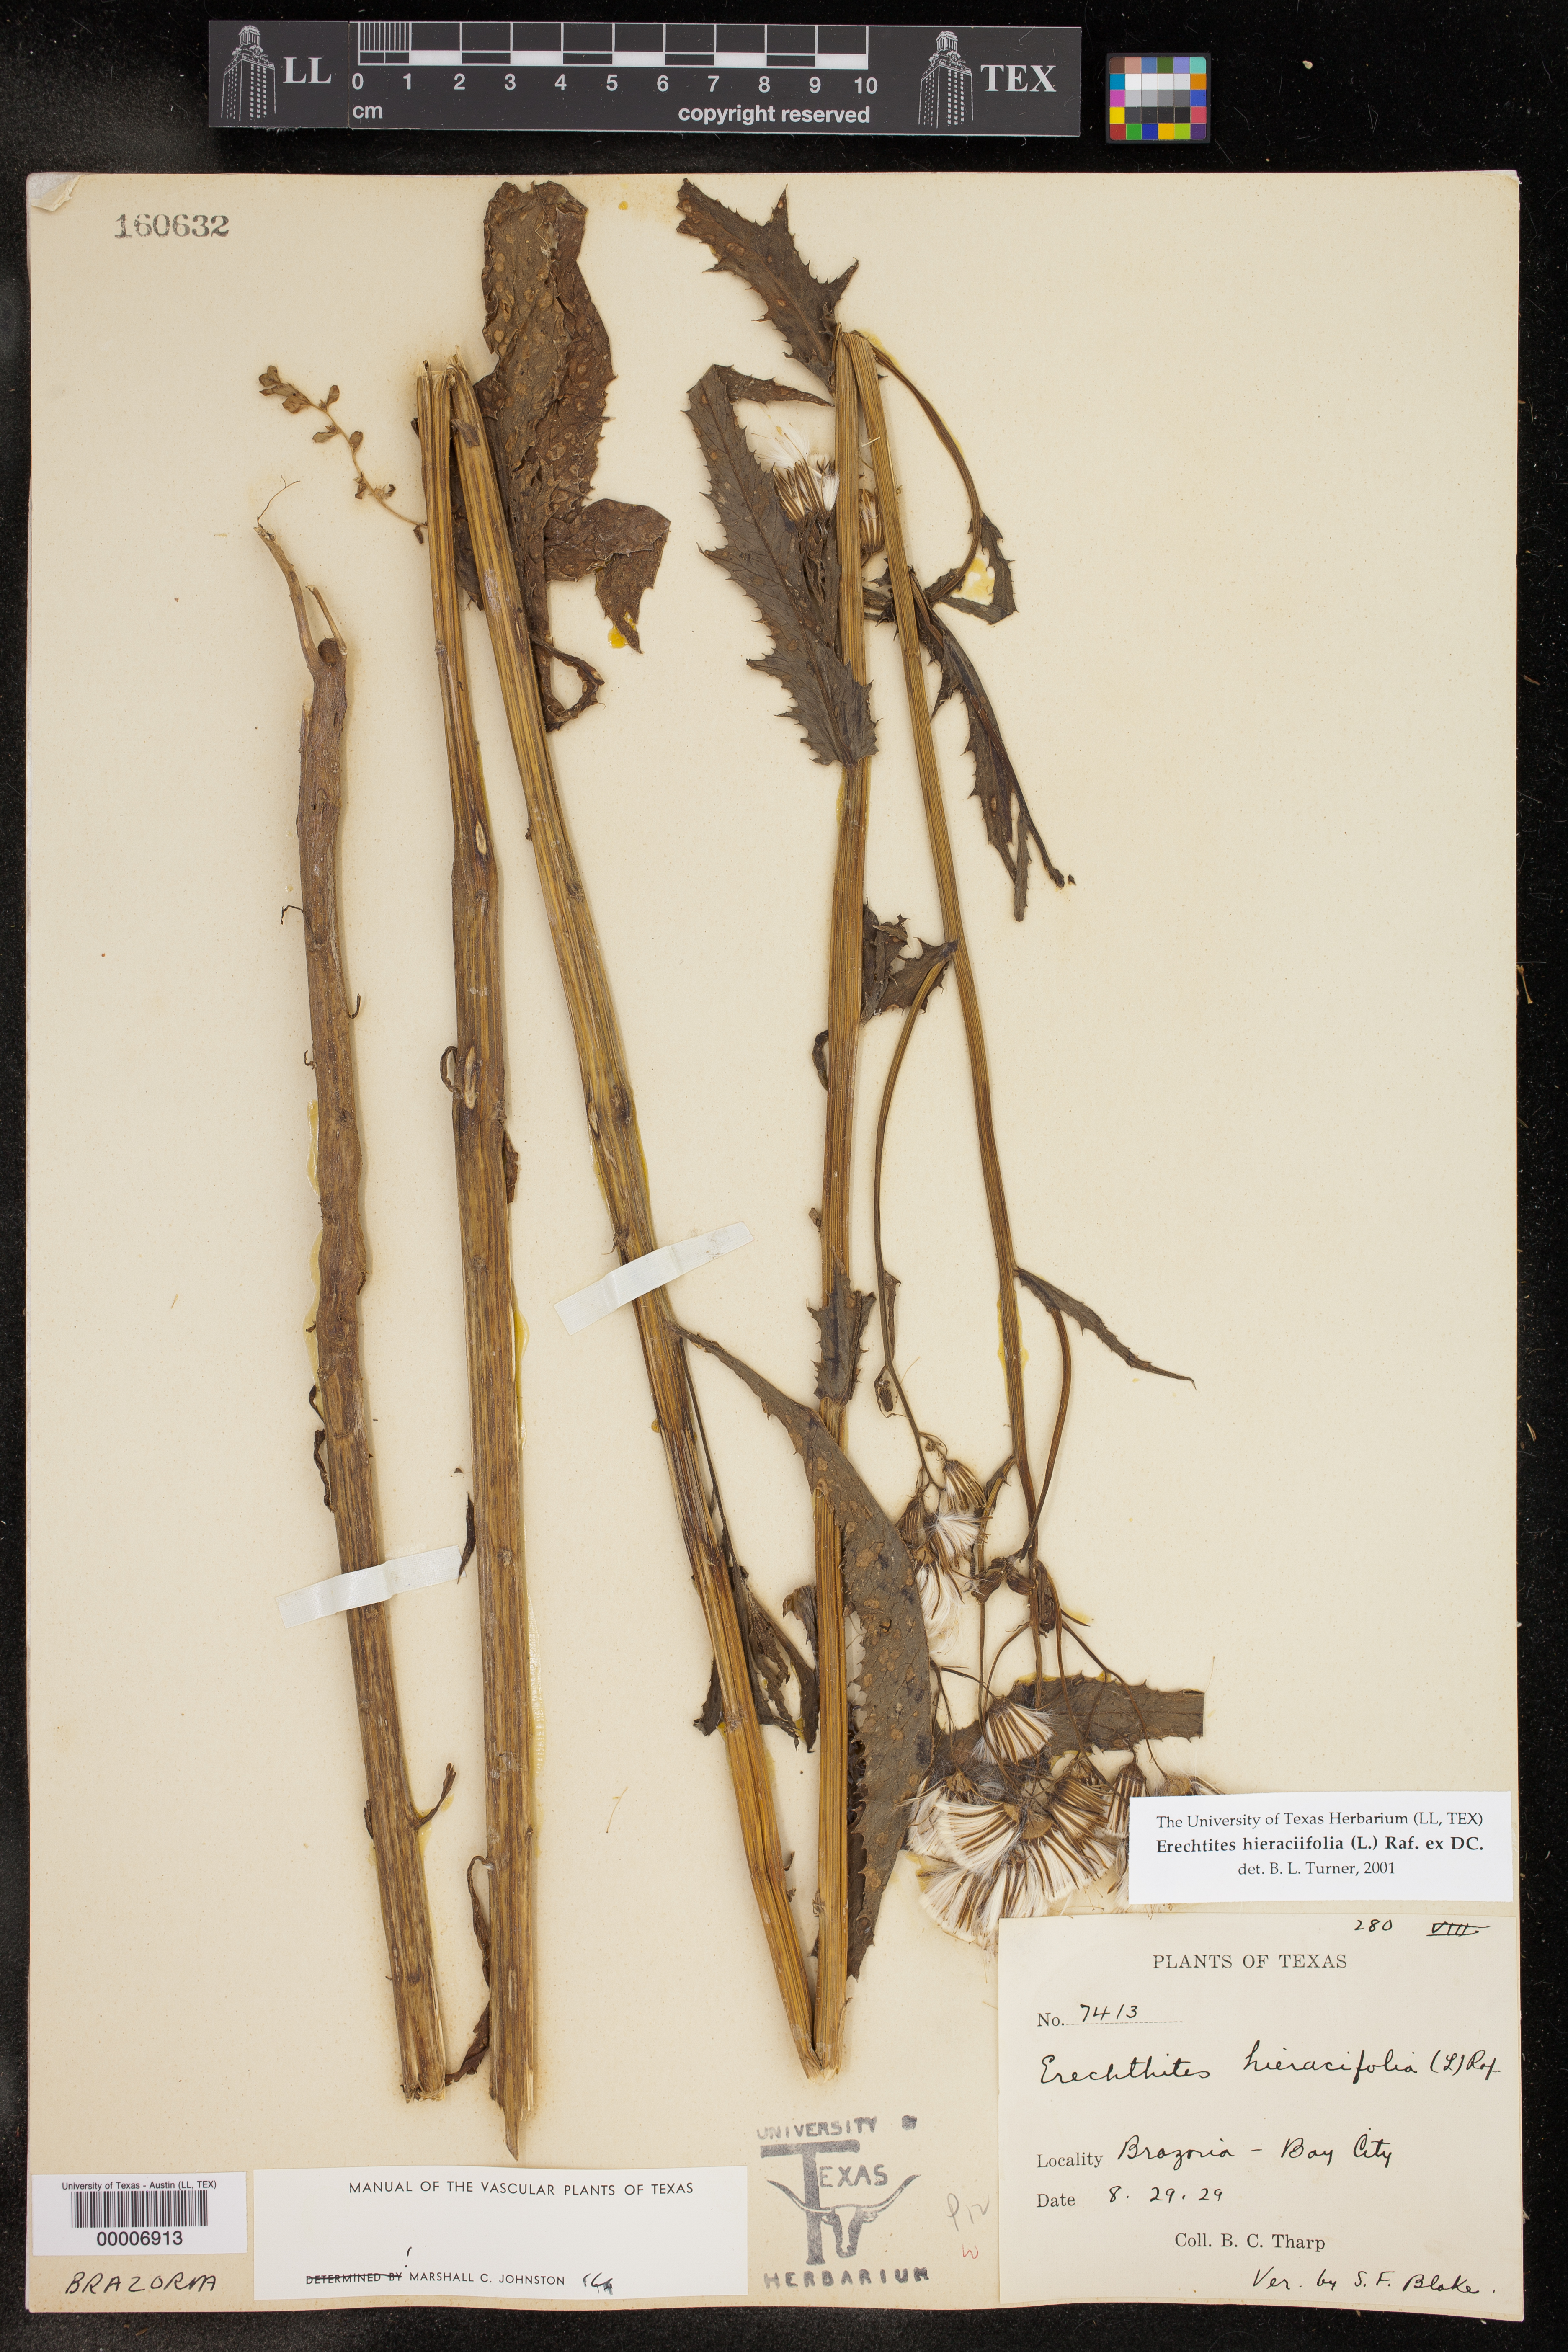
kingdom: Plantae
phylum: Tracheophyta
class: Magnoliopsida
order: Asterales
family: Asteraceae
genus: Erechtites
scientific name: Erechtites hieraciifolius
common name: American burnweed
